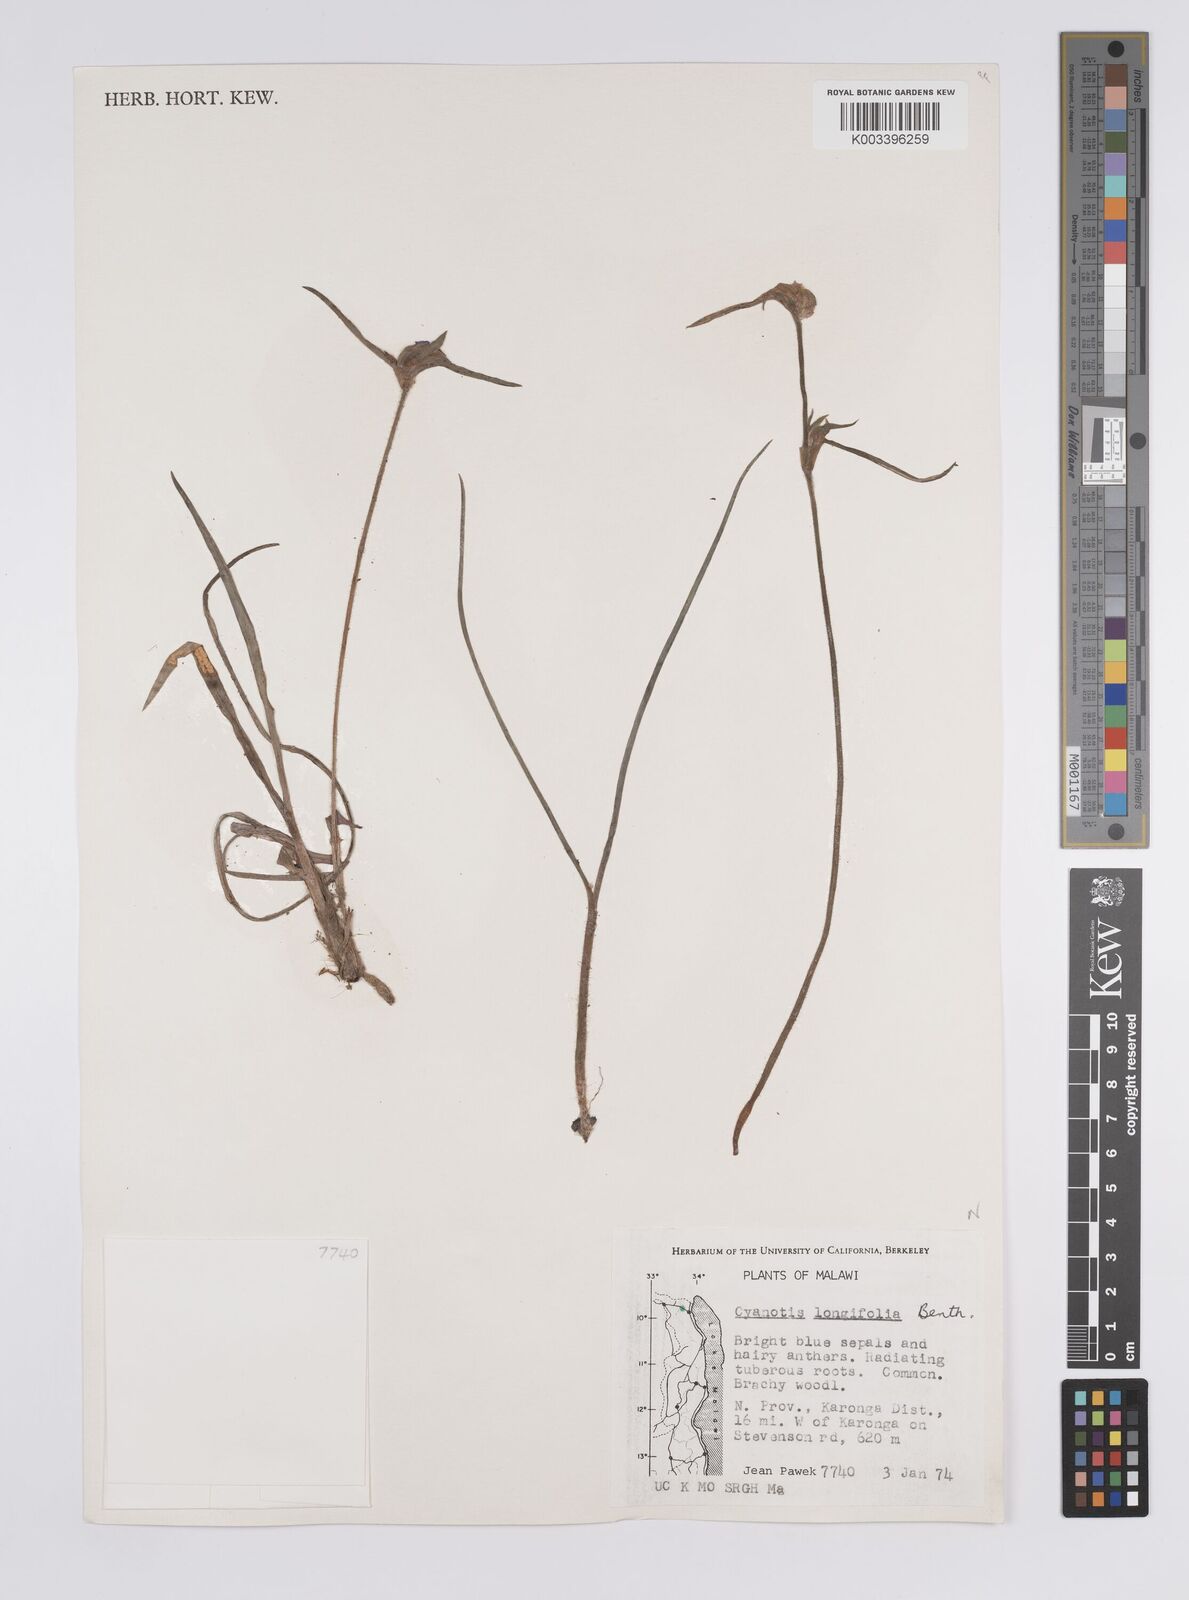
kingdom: Plantae
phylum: Tracheophyta
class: Liliopsida
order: Commelinales
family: Commelinaceae
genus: Cyanotis
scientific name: Cyanotis longifolia
